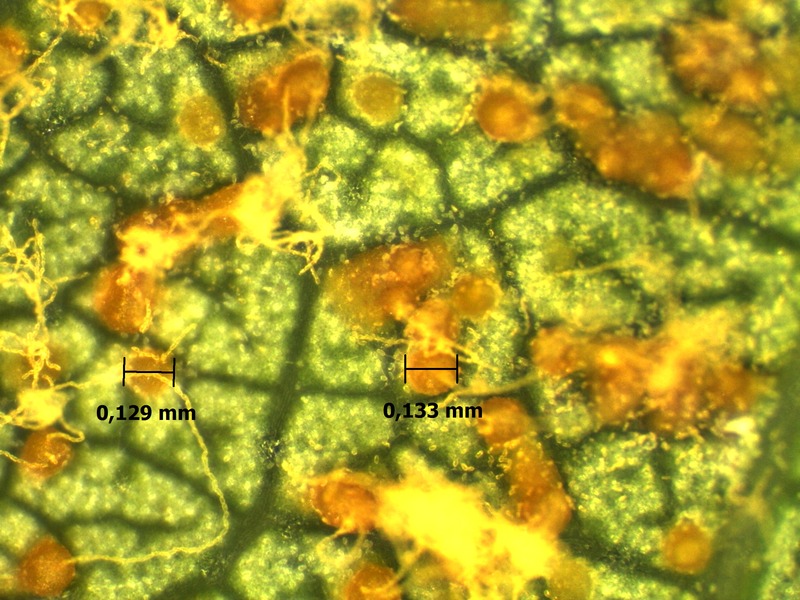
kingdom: Fungi
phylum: Basidiomycota
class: Pucciniomycetes
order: Pucciniales
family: Pucciniastraceae
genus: Melampsoridium
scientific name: Melampsoridium hiratsukanum
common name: Alder rust
